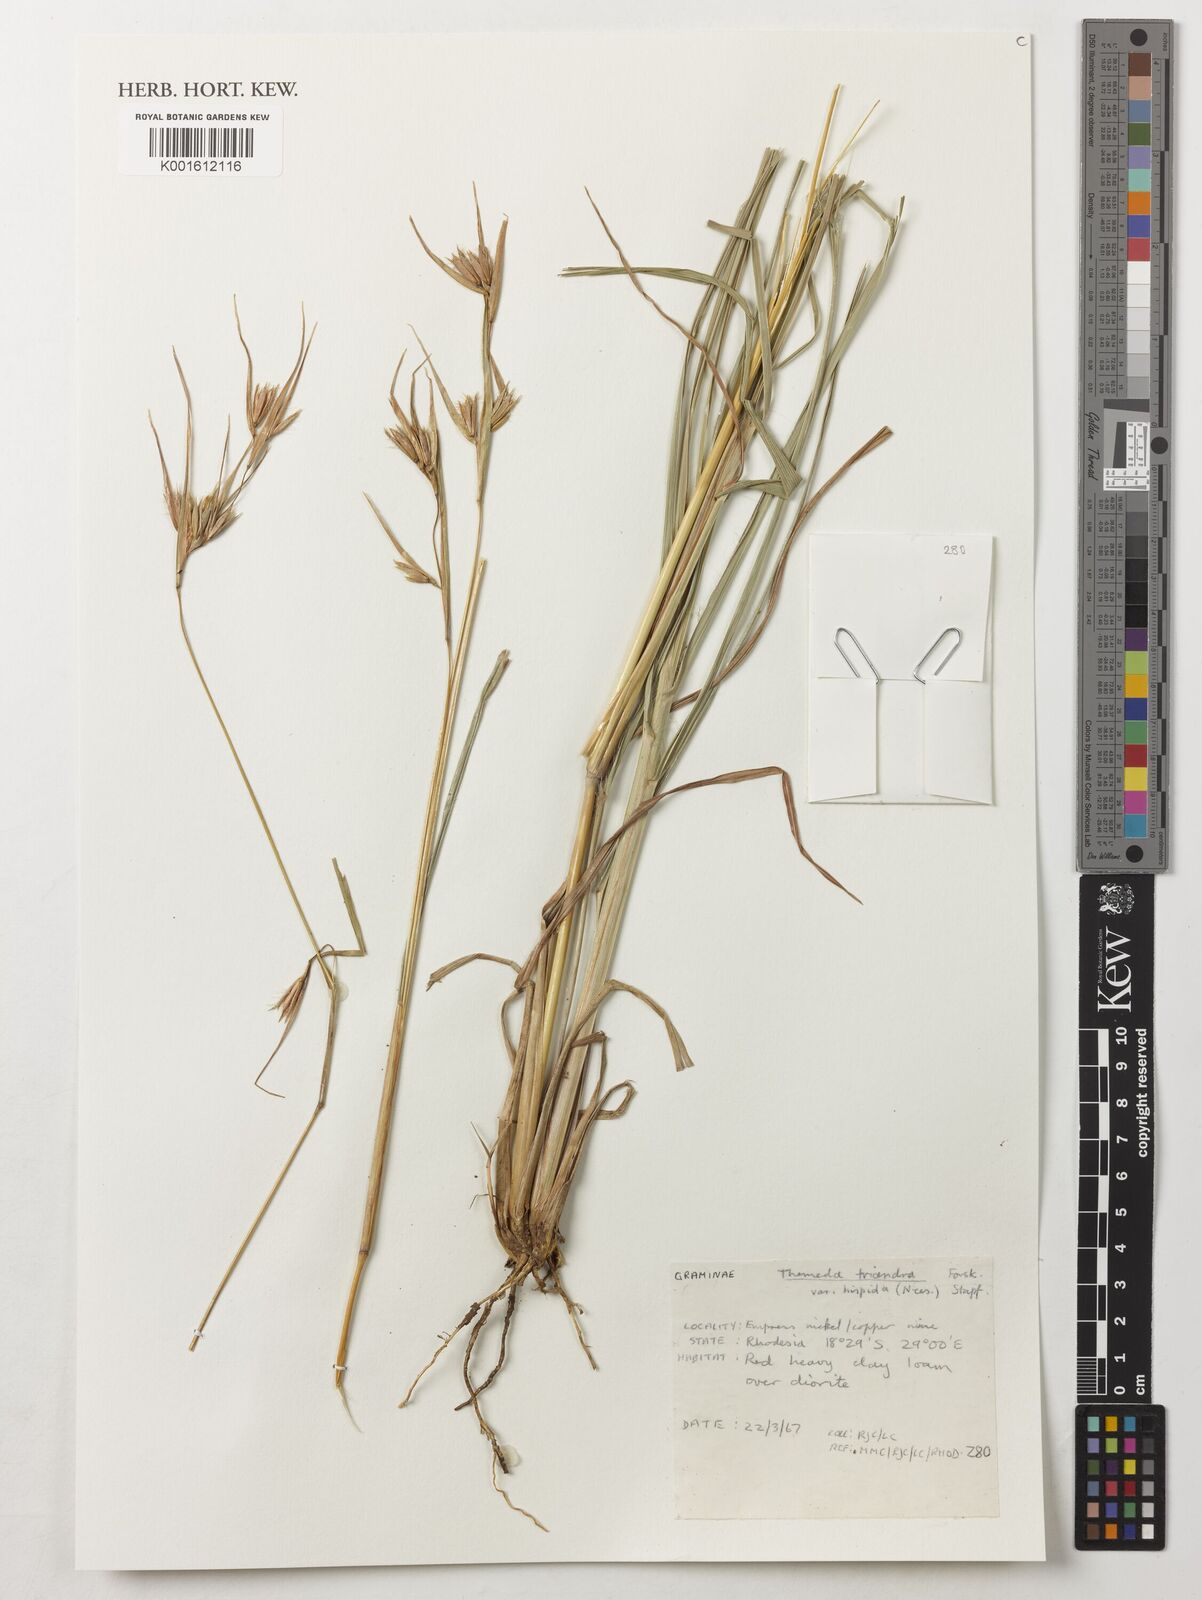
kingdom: Plantae
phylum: Tracheophyta
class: Liliopsida
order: Poales
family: Poaceae
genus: Themeda
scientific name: Themeda triandra
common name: Kangaroo grass
